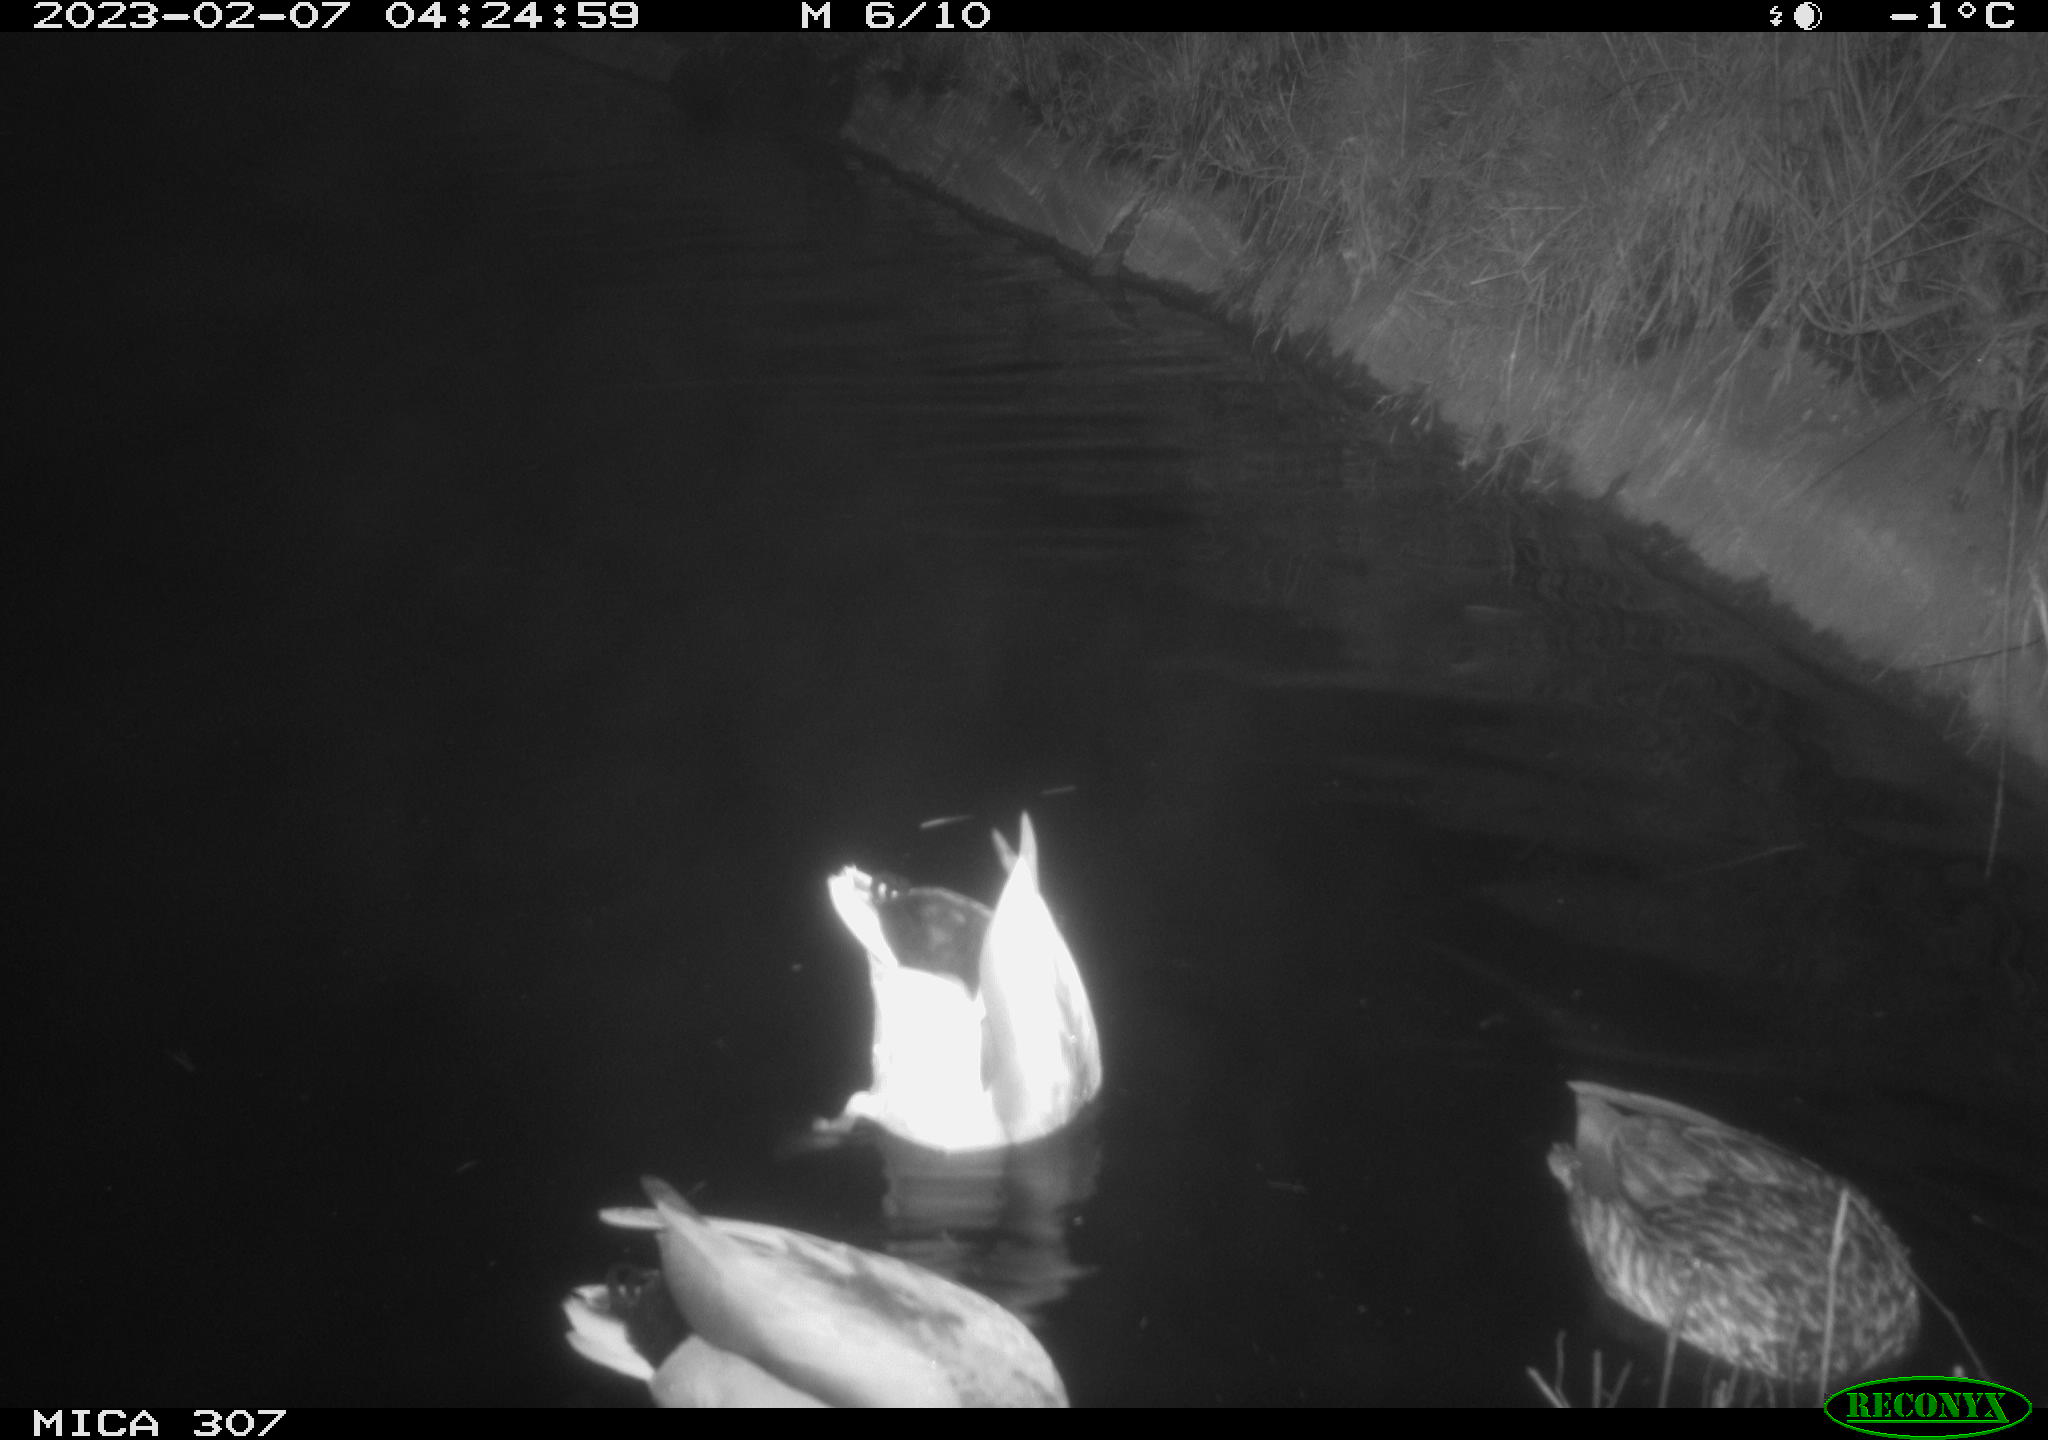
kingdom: Animalia
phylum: Chordata
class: Mammalia
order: Rodentia
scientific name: Rodentia
